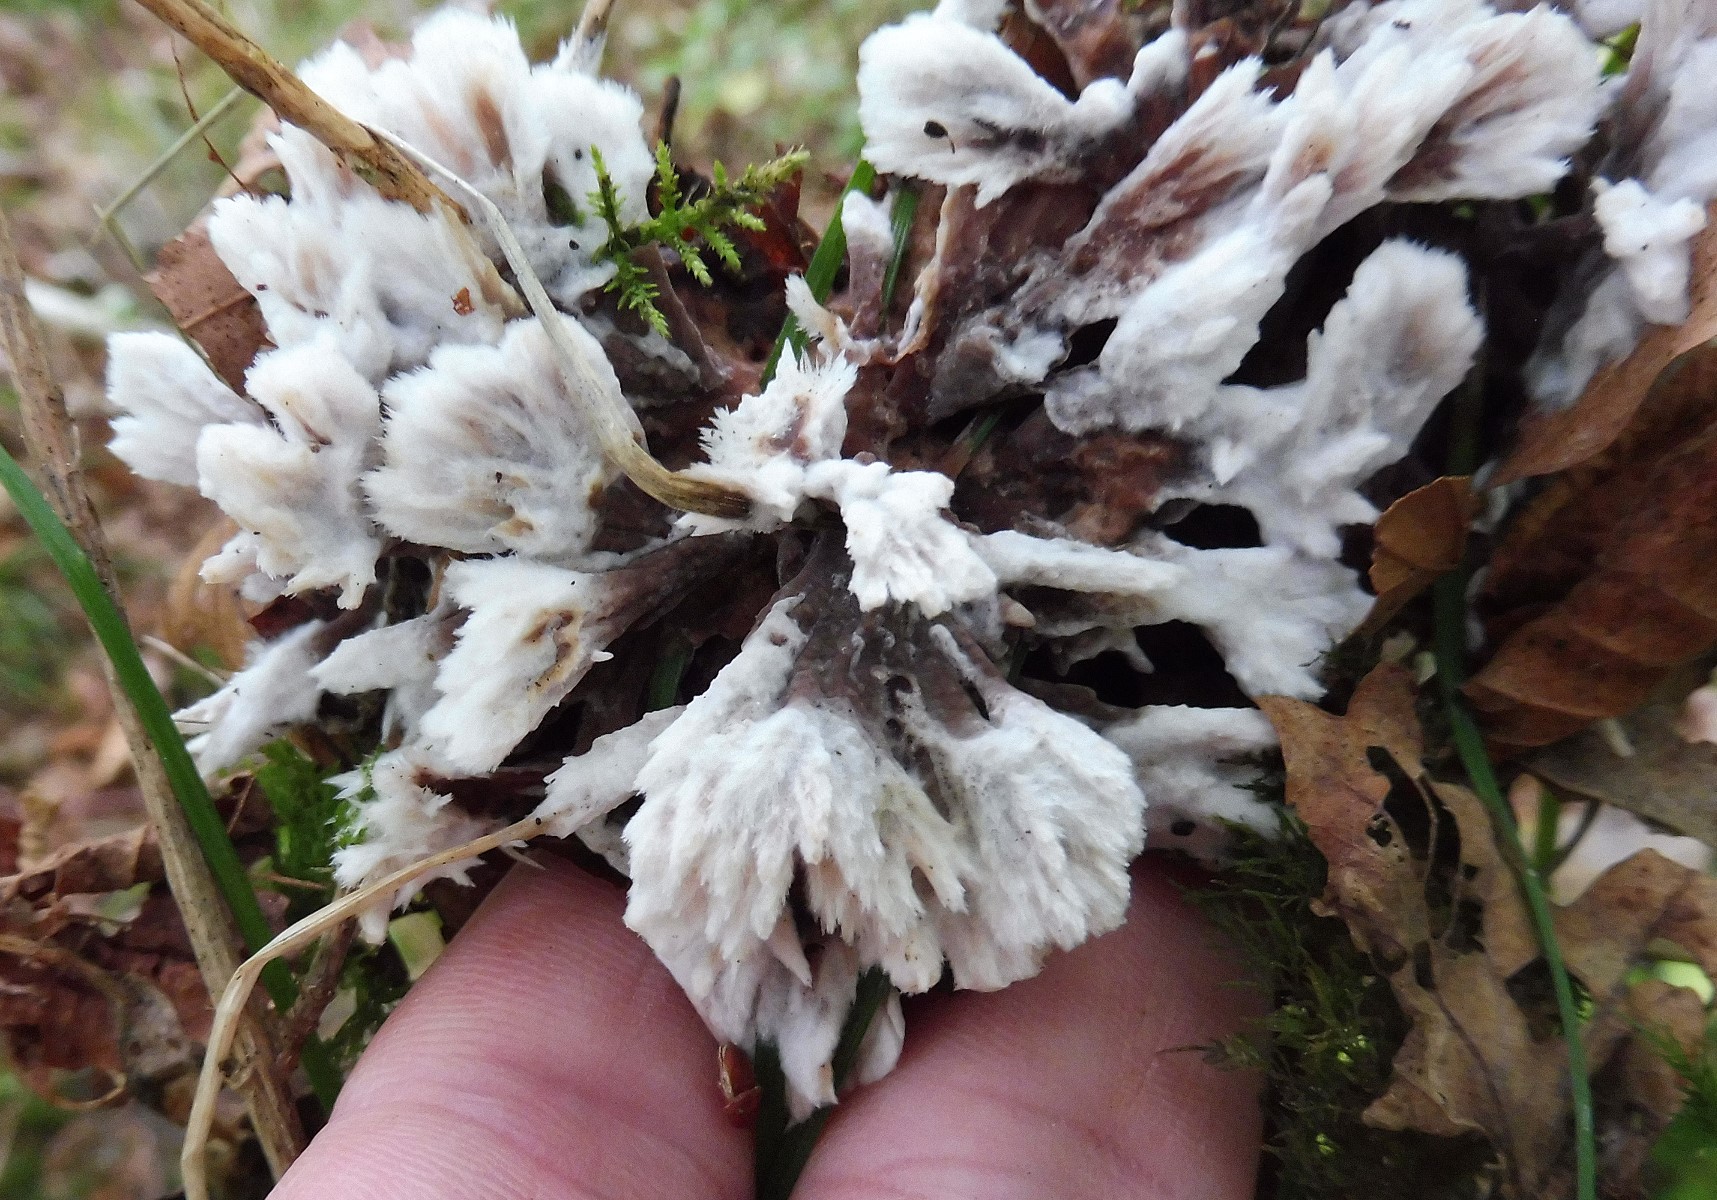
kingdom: Fungi
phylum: Basidiomycota
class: Agaricomycetes
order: Thelephorales
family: Thelephoraceae
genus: Thelephora
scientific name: Thelephora penicillata
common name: fladtrådt frynsesvamp
